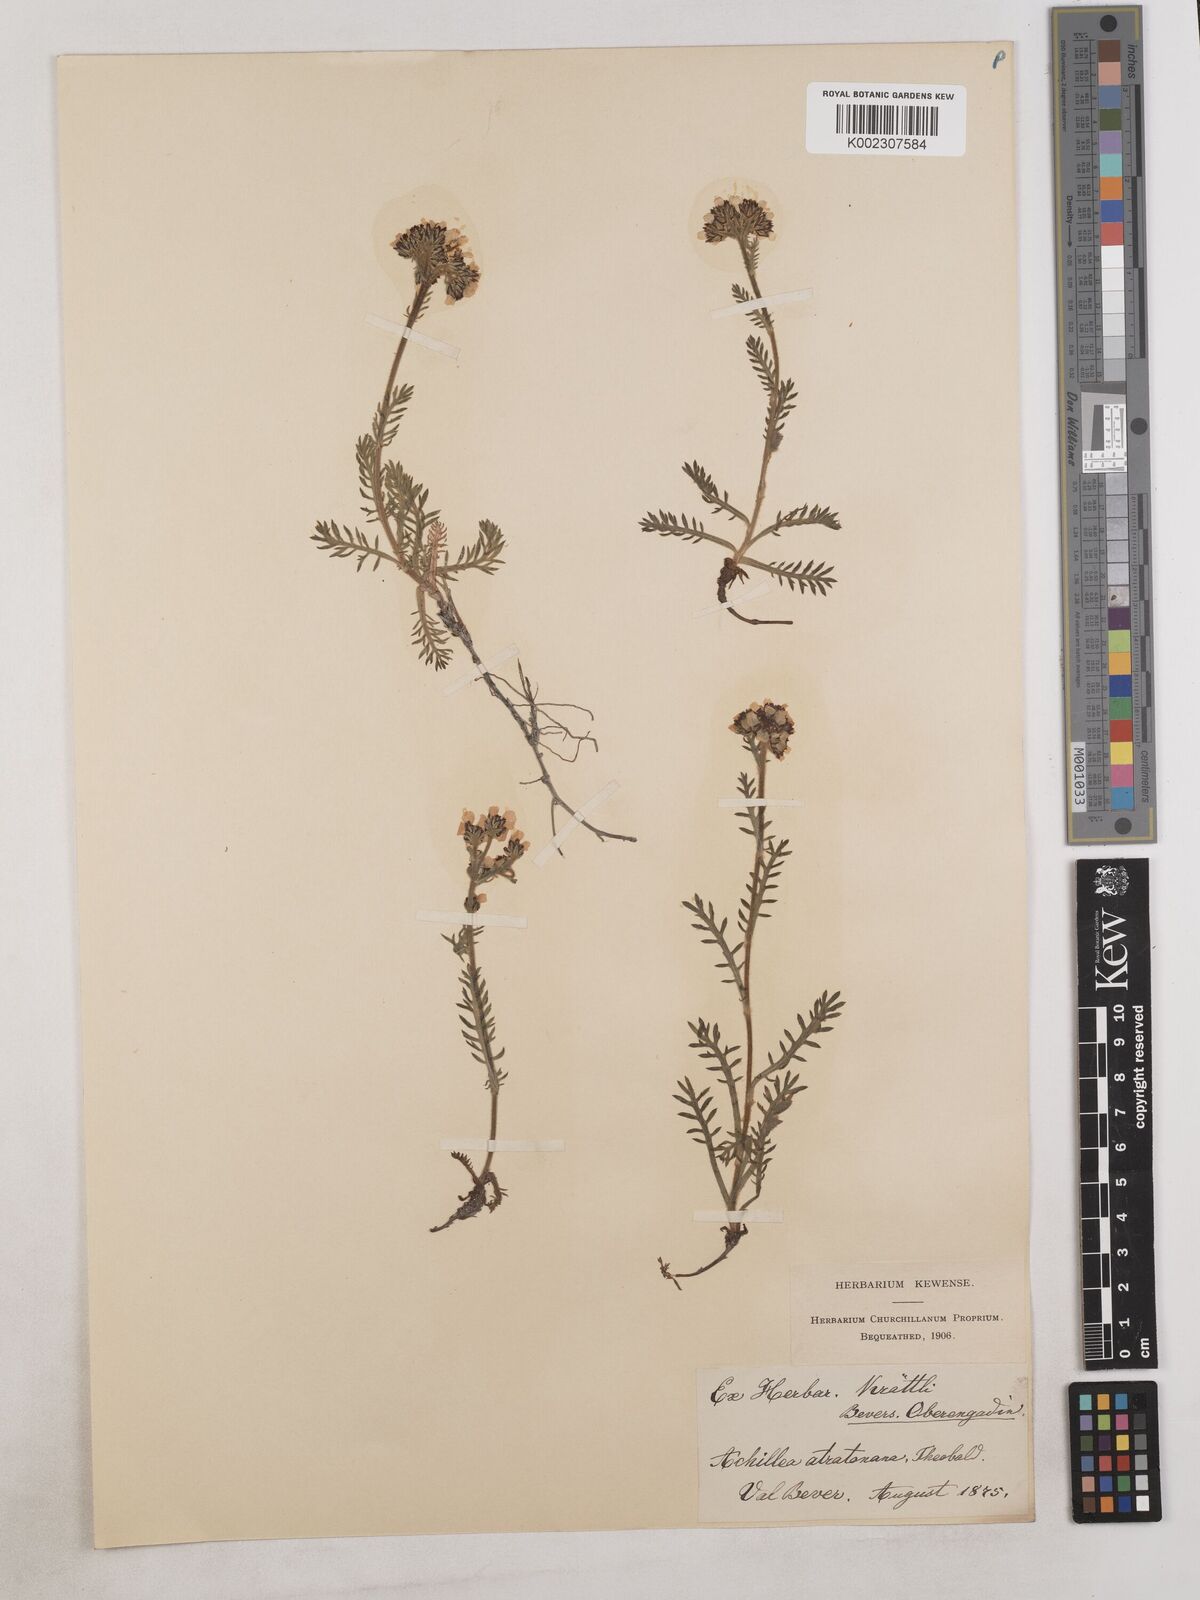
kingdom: Plantae
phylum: Tracheophyta
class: Magnoliopsida
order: Asterales
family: Asteraceae
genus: Achillea
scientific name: Achillea atrata
